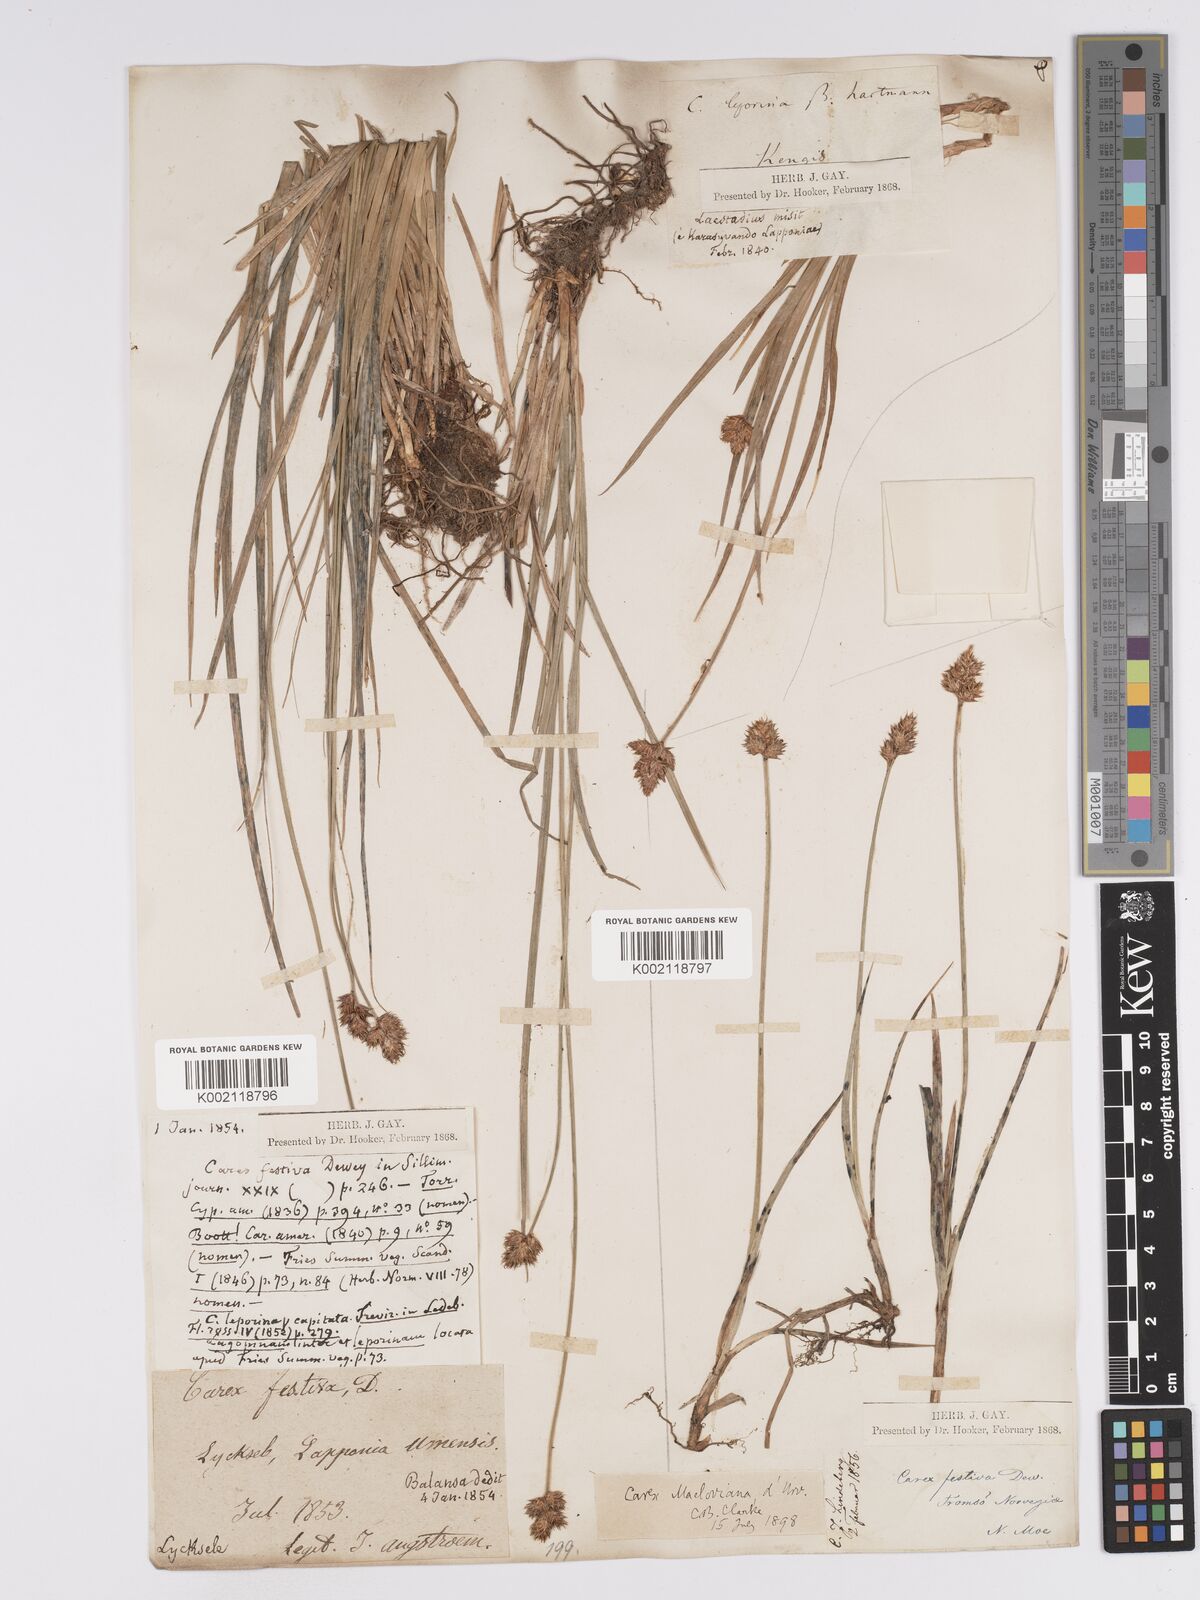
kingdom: Plantae
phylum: Tracheophyta
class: Liliopsida
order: Poales
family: Cyperaceae
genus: Carex
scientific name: Carex macloviana
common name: Falkland island sedge
